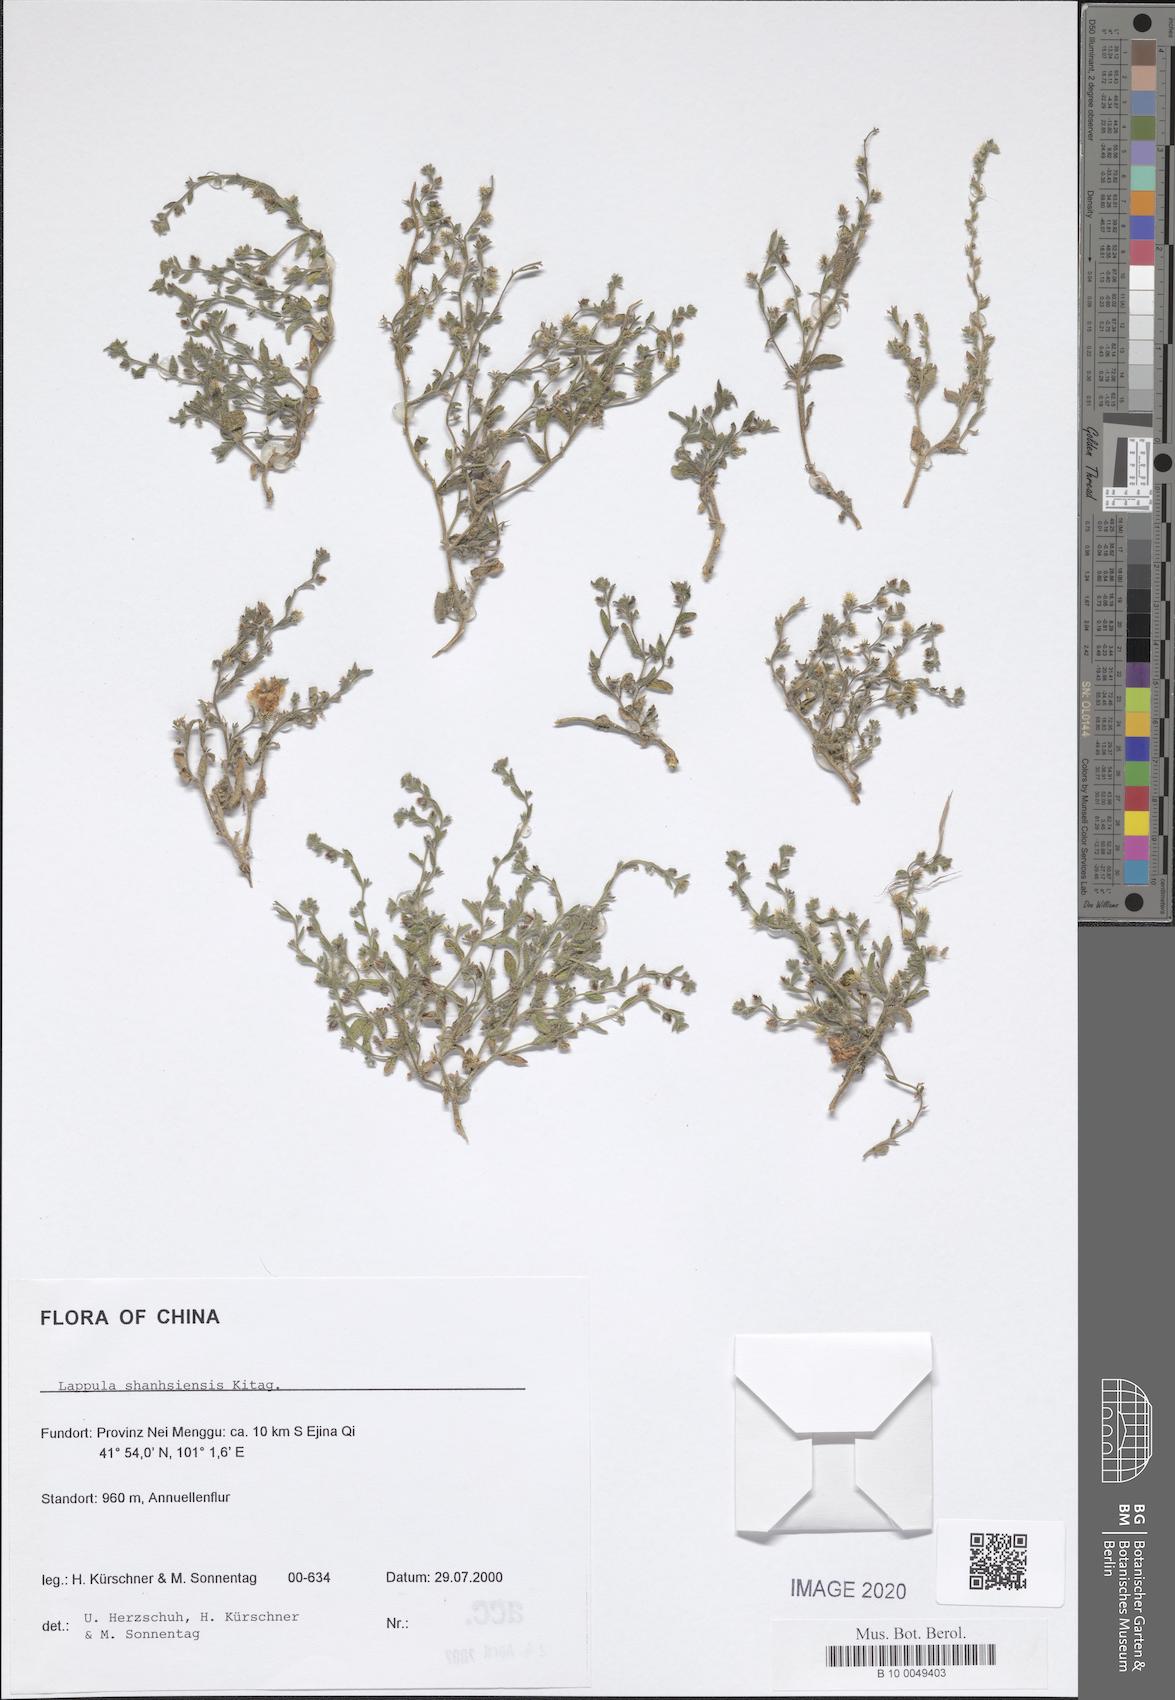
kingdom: Plantae
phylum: Tracheophyta
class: Magnoliopsida
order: Boraginales
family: Boraginaceae
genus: Lappula
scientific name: Lappula shanhsiensis
